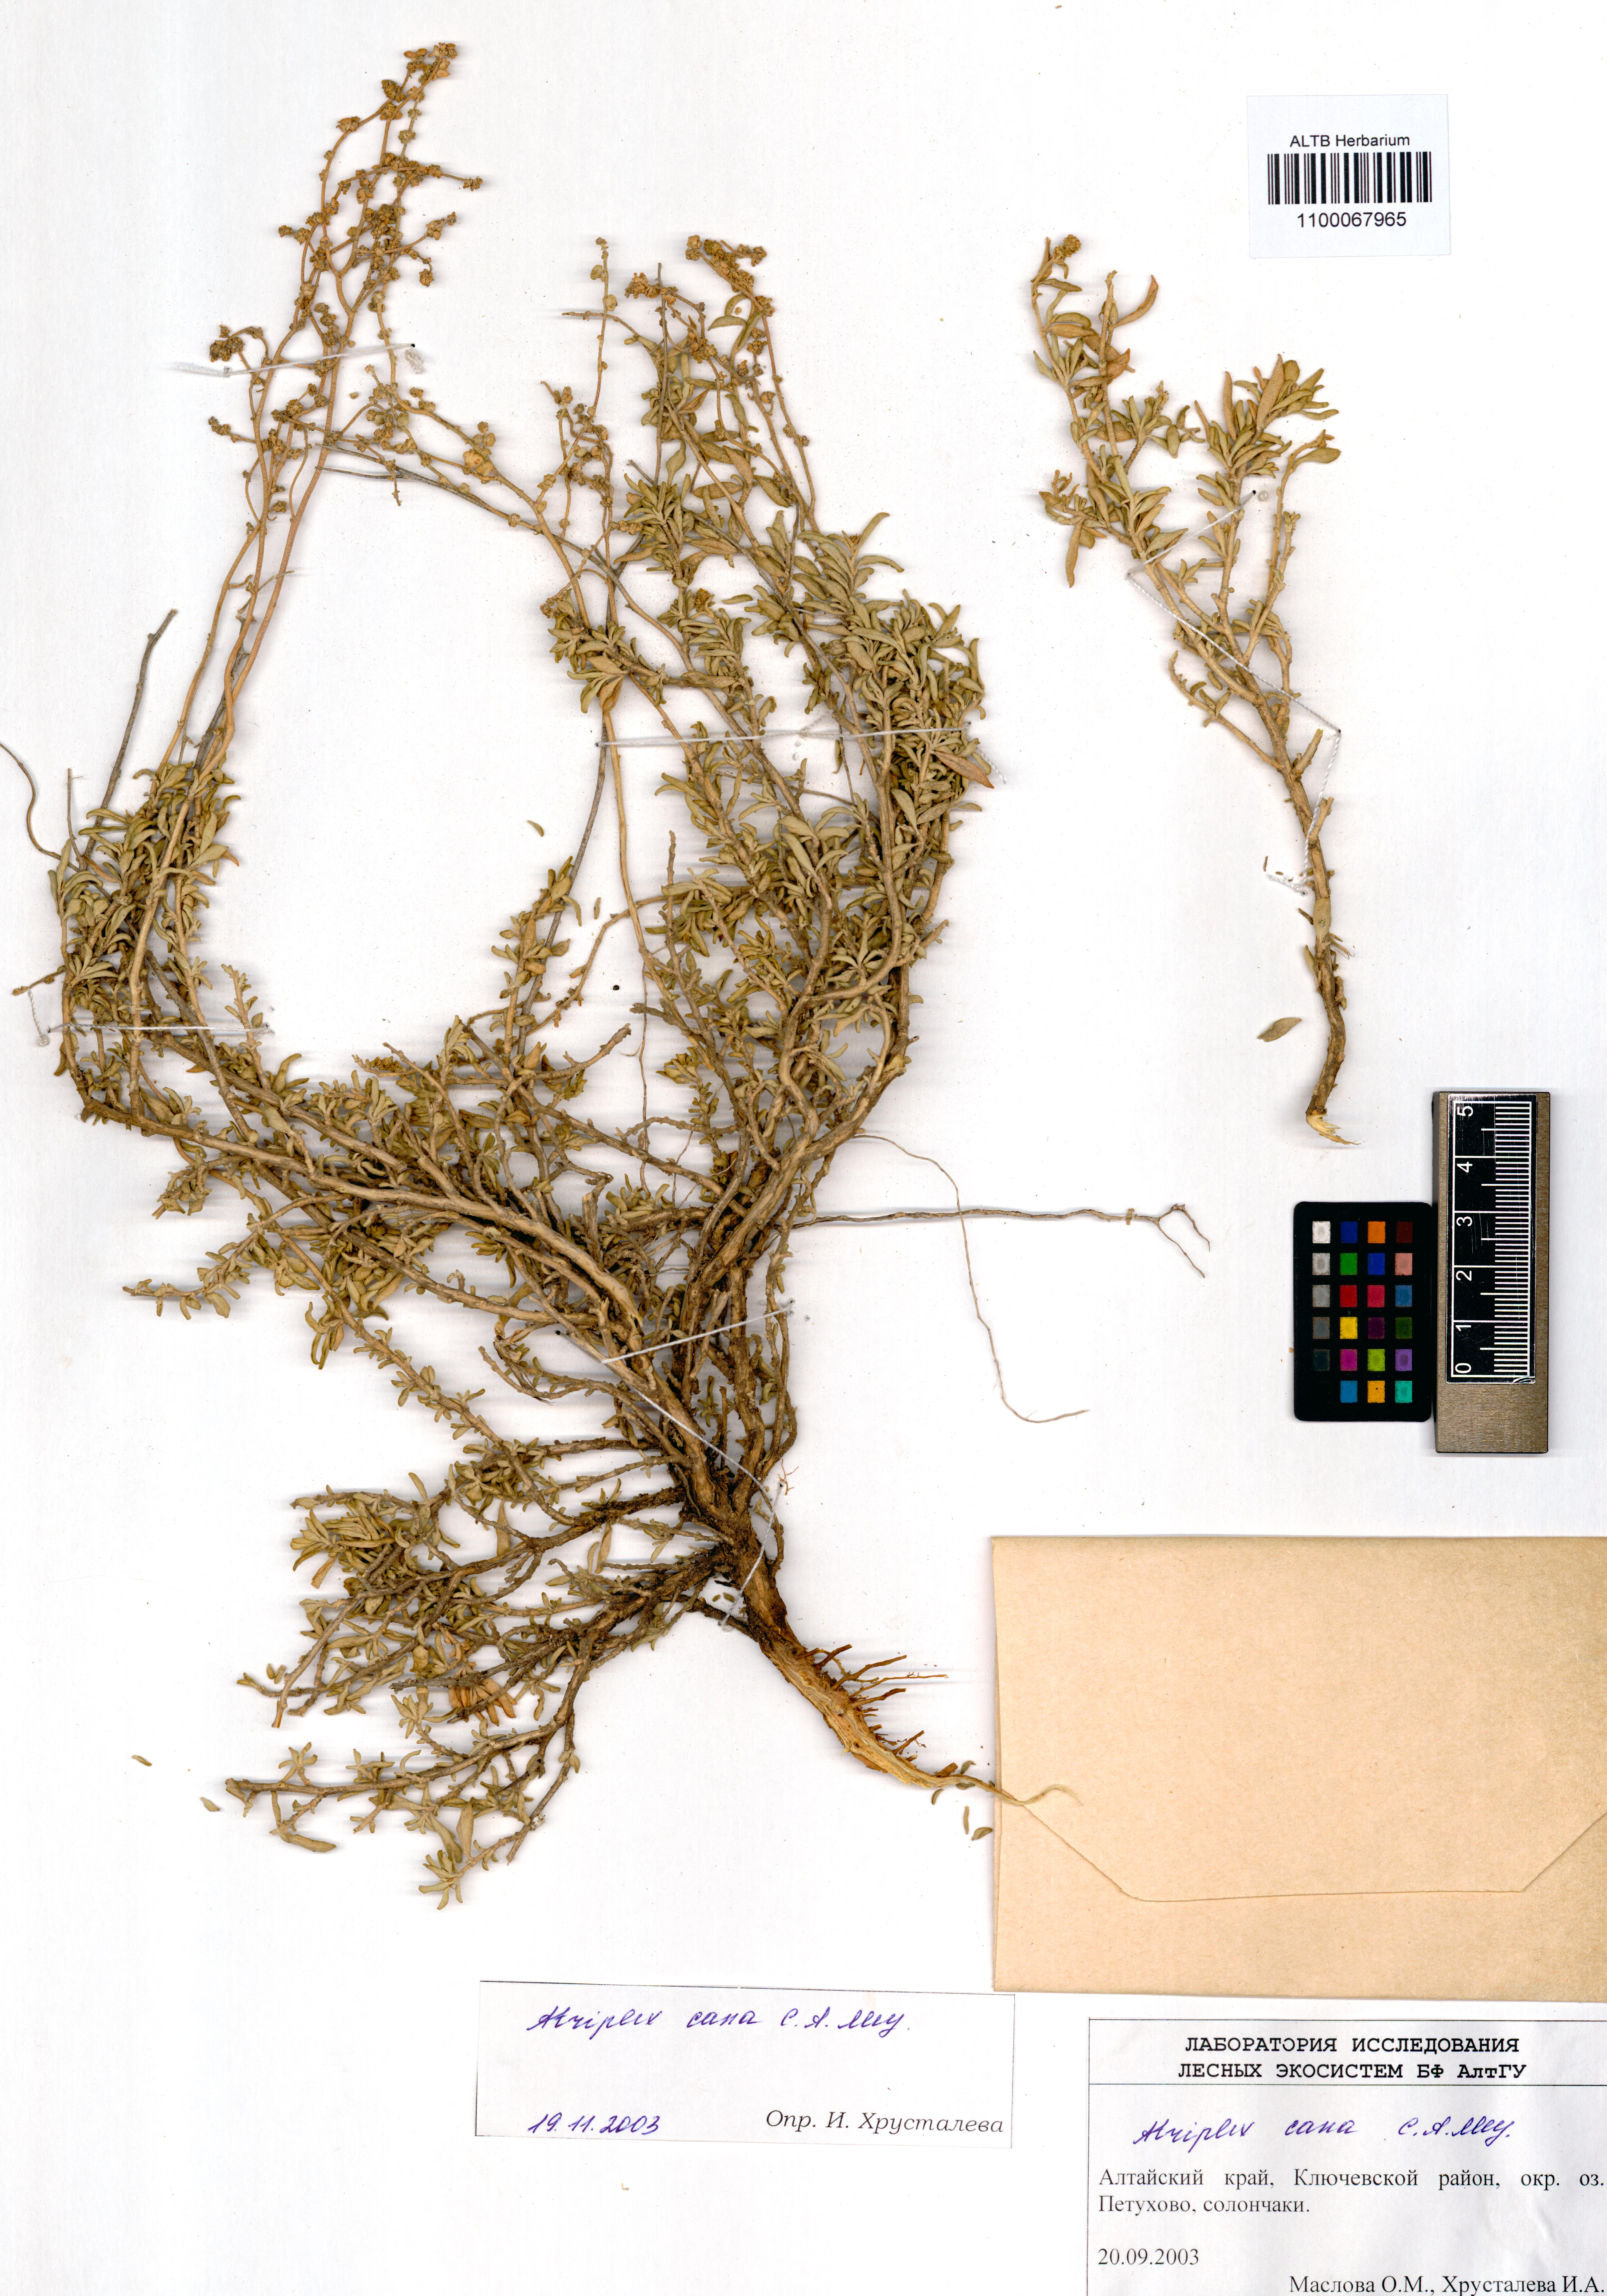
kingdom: Plantae
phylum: Tracheophyta
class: Magnoliopsida
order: Caryophyllales
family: Amaranthaceae
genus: Atriplex
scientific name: Atriplex cana
